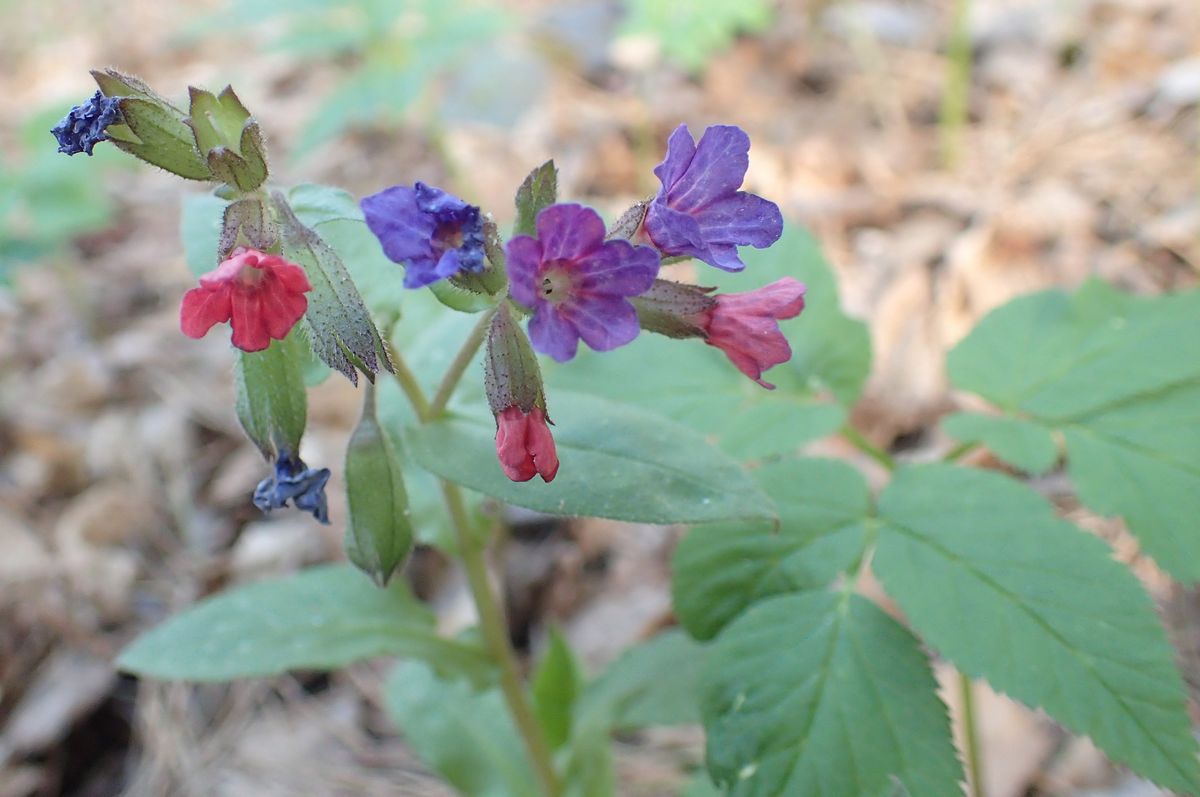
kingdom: Plantae
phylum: Tracheophyta
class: Magnoliopsida
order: Boraginales
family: Boraginaceae
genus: Pulmonaria
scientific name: Pulmonaria obscura
